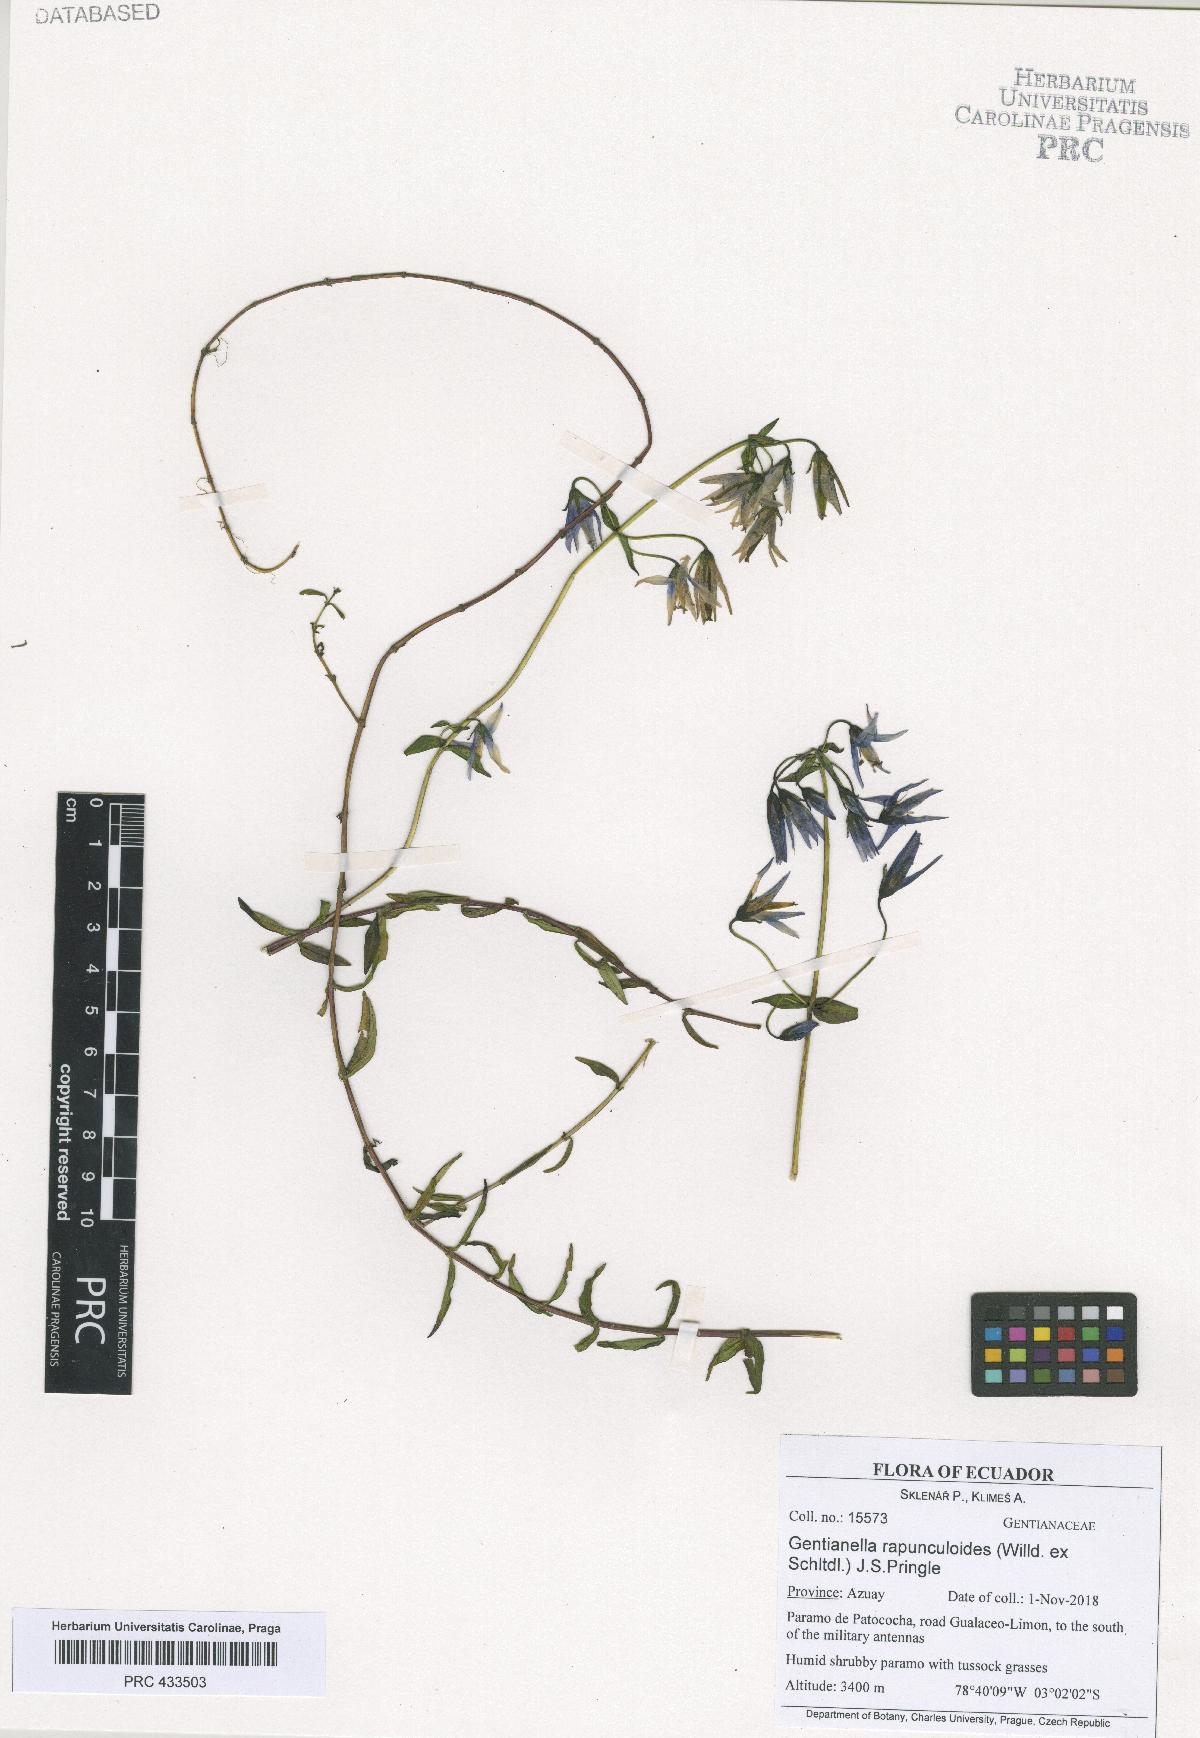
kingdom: Plantae
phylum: Tracheophyta
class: Magnoliopsida
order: Gentianales
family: Gentianaceae
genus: Gentianella
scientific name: Gentianella rapunculoides
